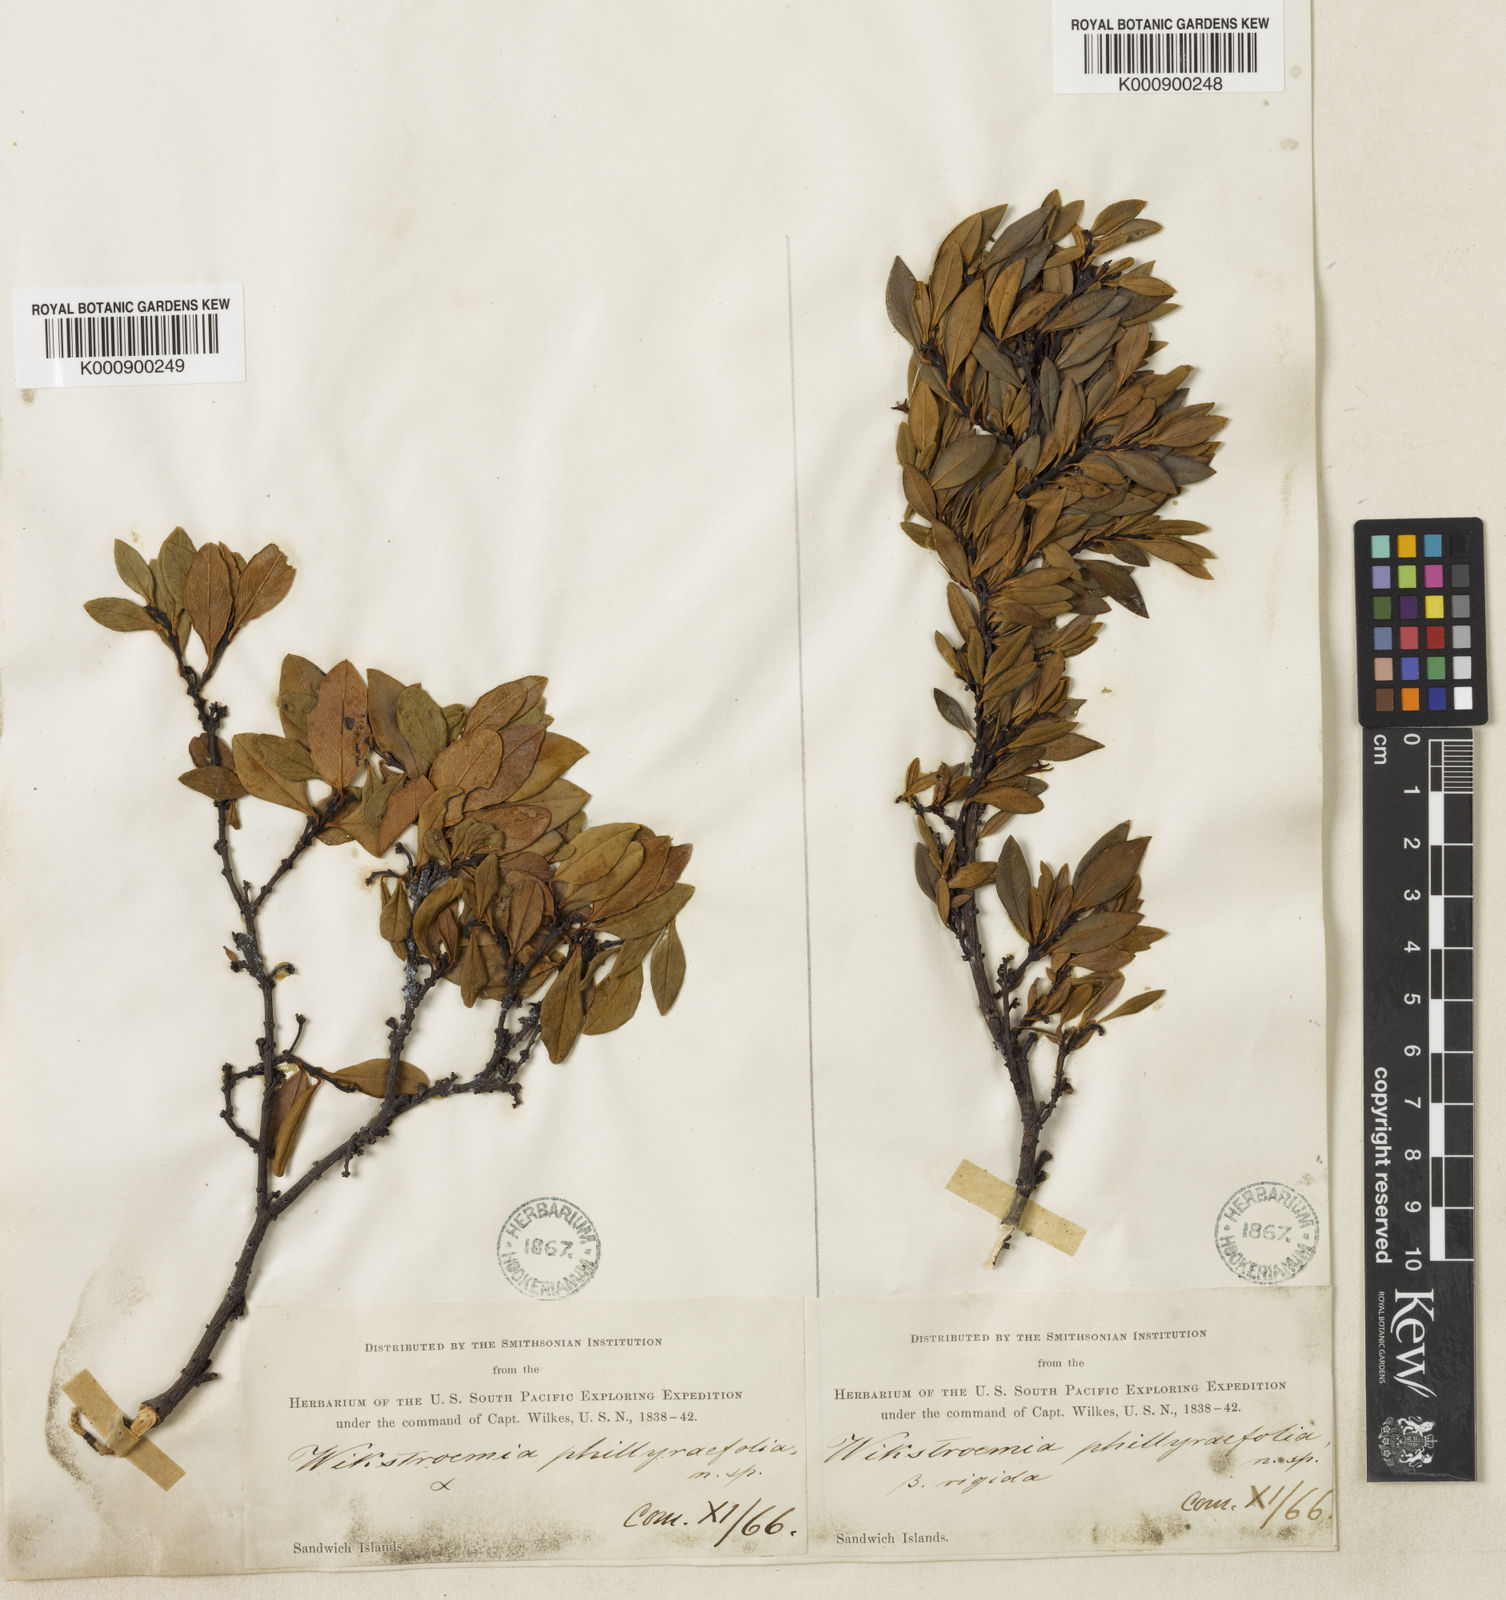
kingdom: Plantae
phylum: Tracheophyta
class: Magnoliopsida
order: Malvales
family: Thymelaeaceae
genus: Wikstroemia
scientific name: Wikstroemia phillyreifolia
